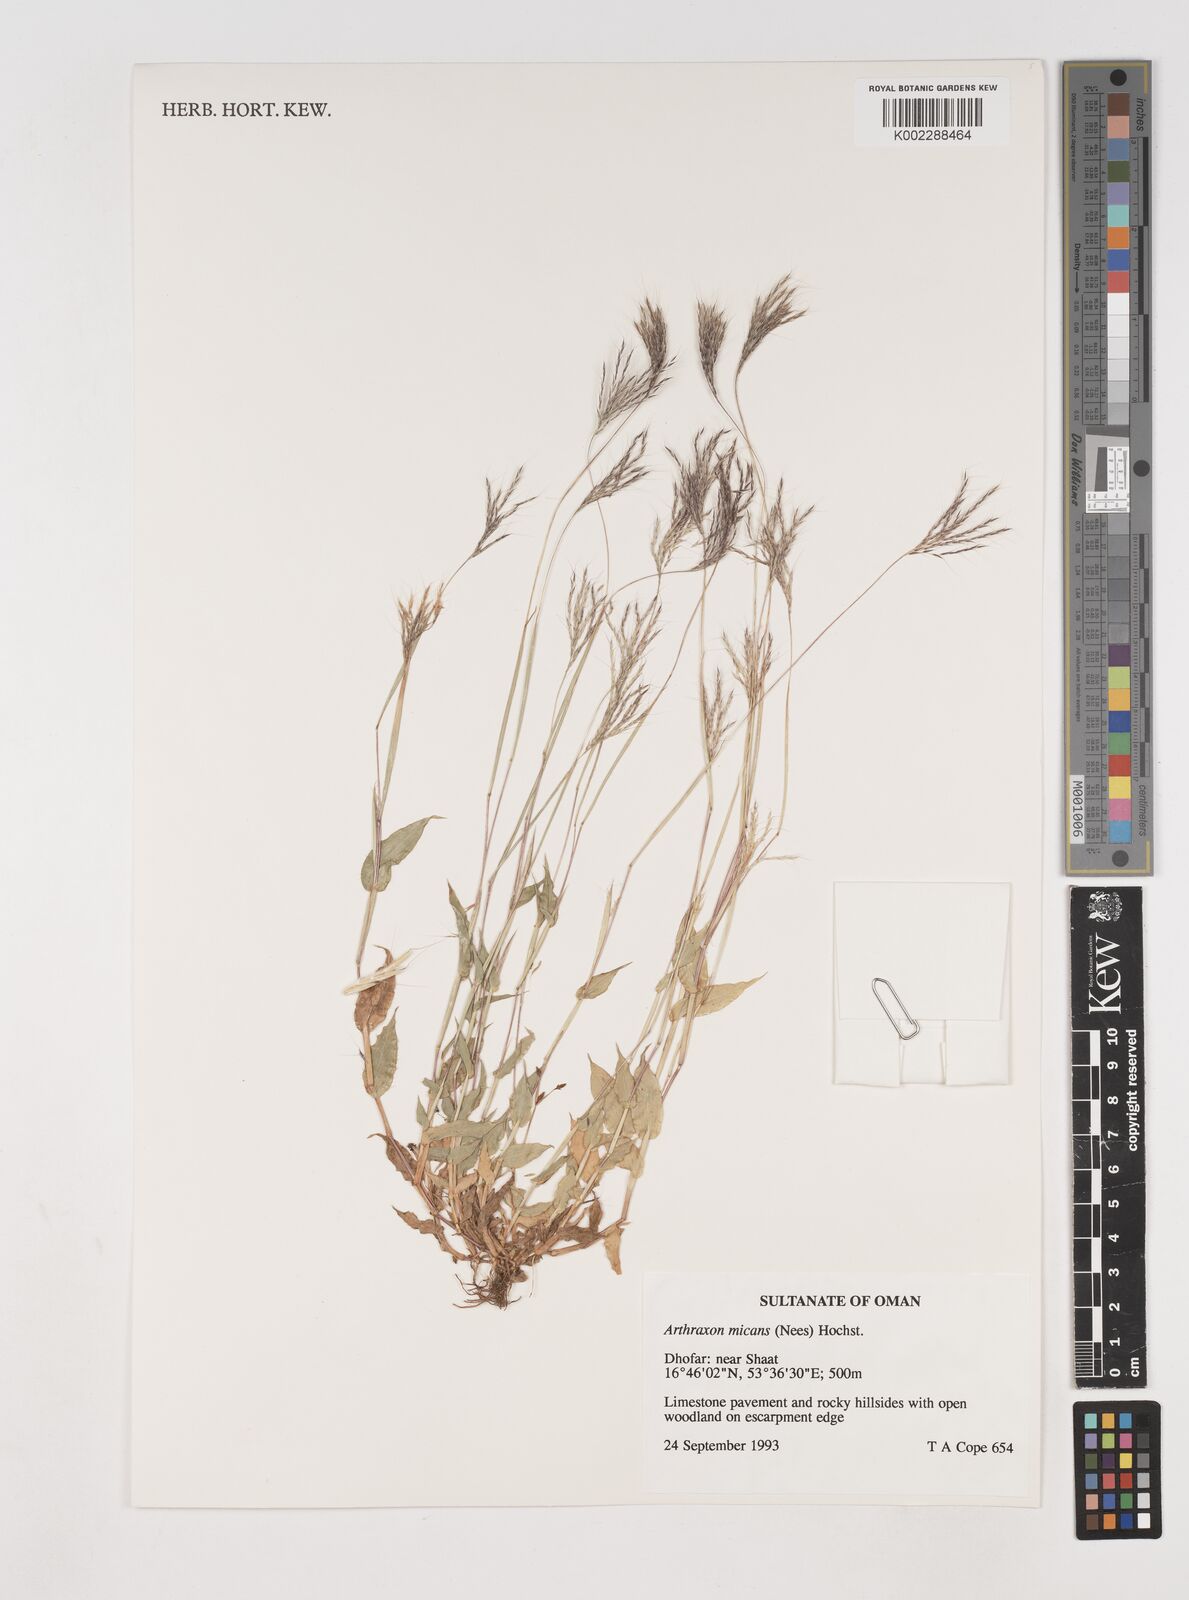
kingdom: Plantae
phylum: Tracheophyta
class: Liliopsida
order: Poales
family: Poaceae
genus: Arthraxon
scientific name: Arthraxon hispidus
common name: Small carpgrass
